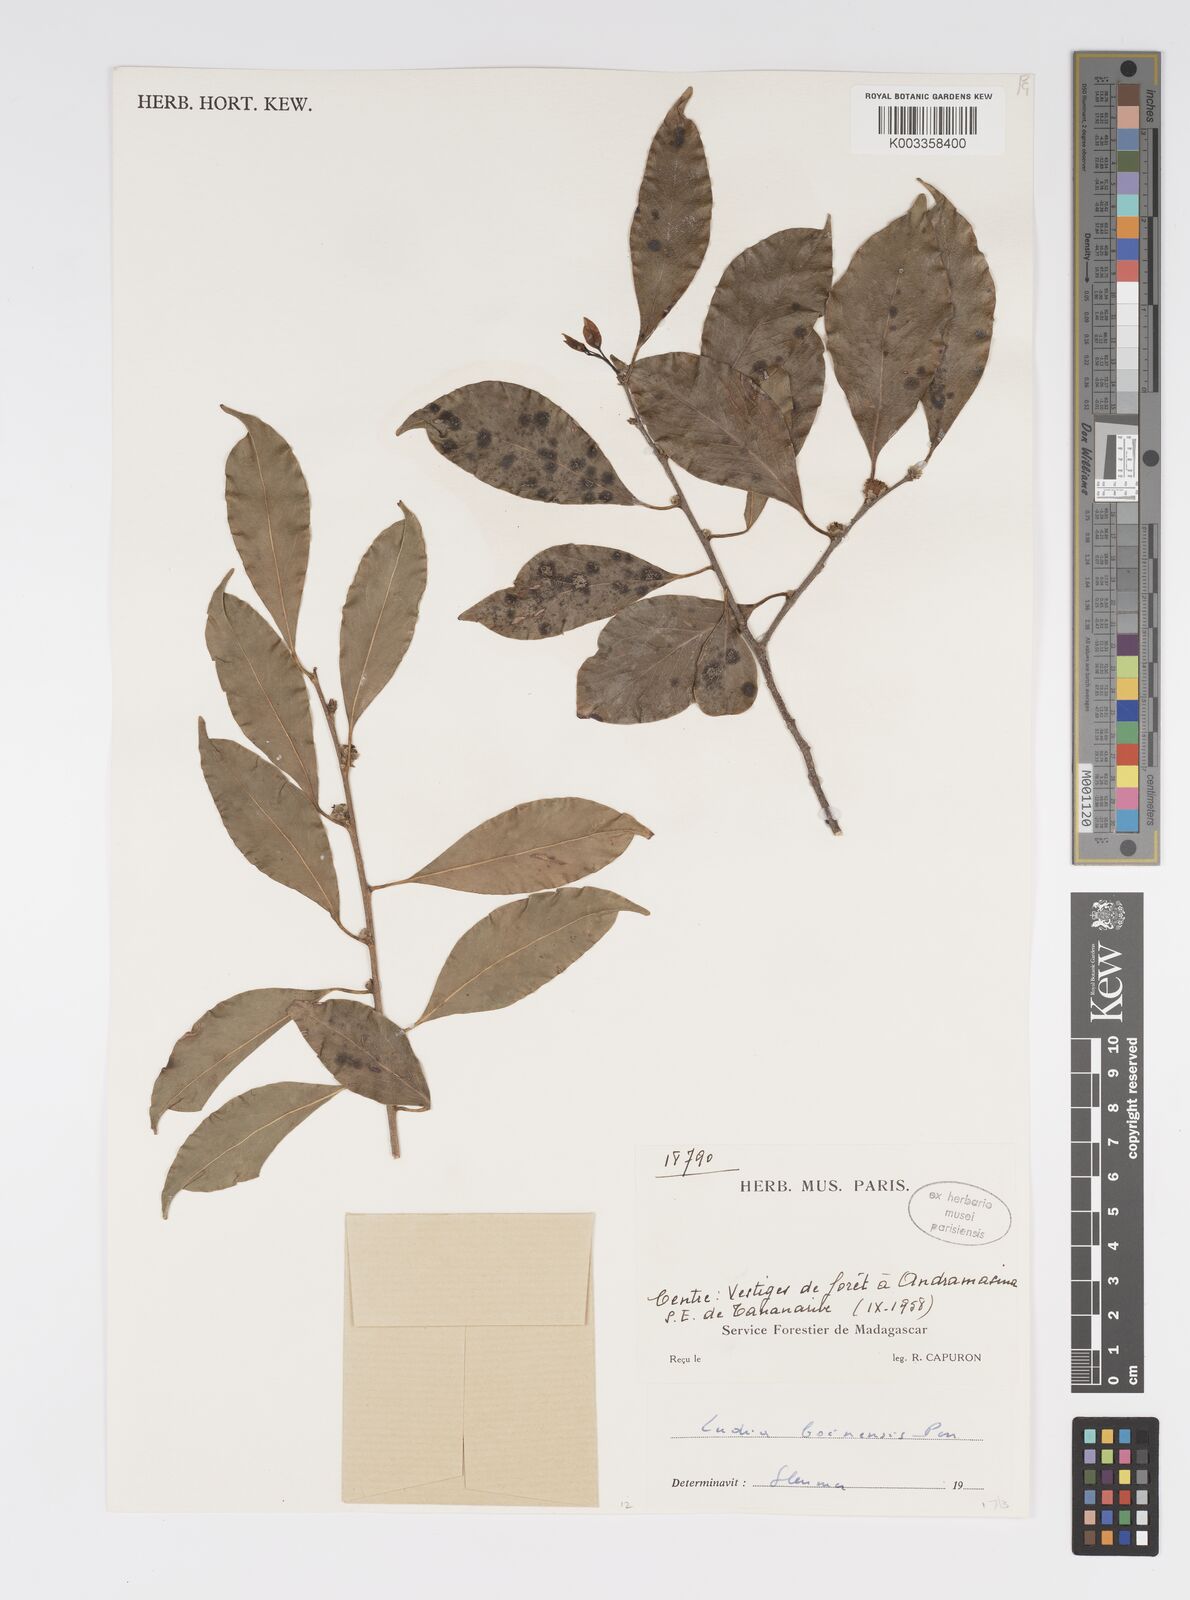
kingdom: Plantae
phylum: Tracheophyta
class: Magnoliopsida
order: Malpighiales
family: Salicaceae
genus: Ludia
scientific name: Ludia boinensis
